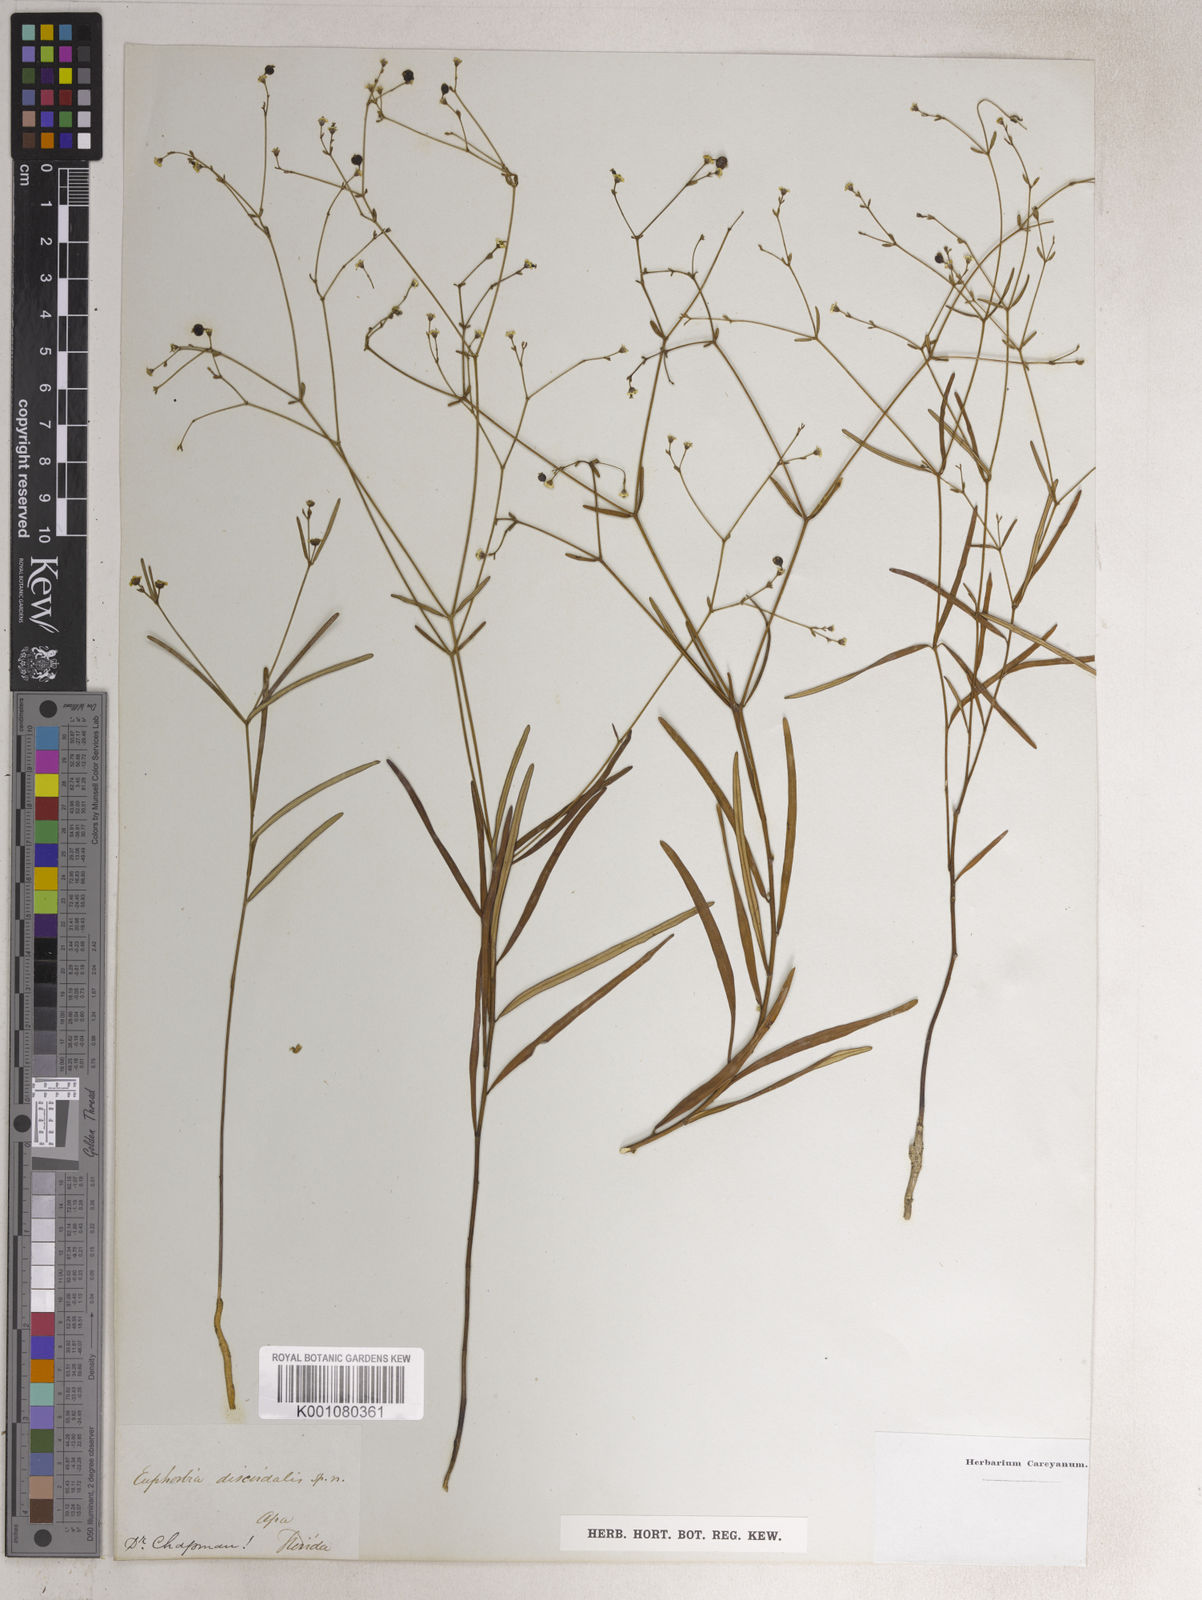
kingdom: Plantae
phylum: Tracheophyta
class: Magnoliopsida
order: Malpighiales
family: Euphorbiaceae
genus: Euphorbia
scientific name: Euphorbia discoidalis
